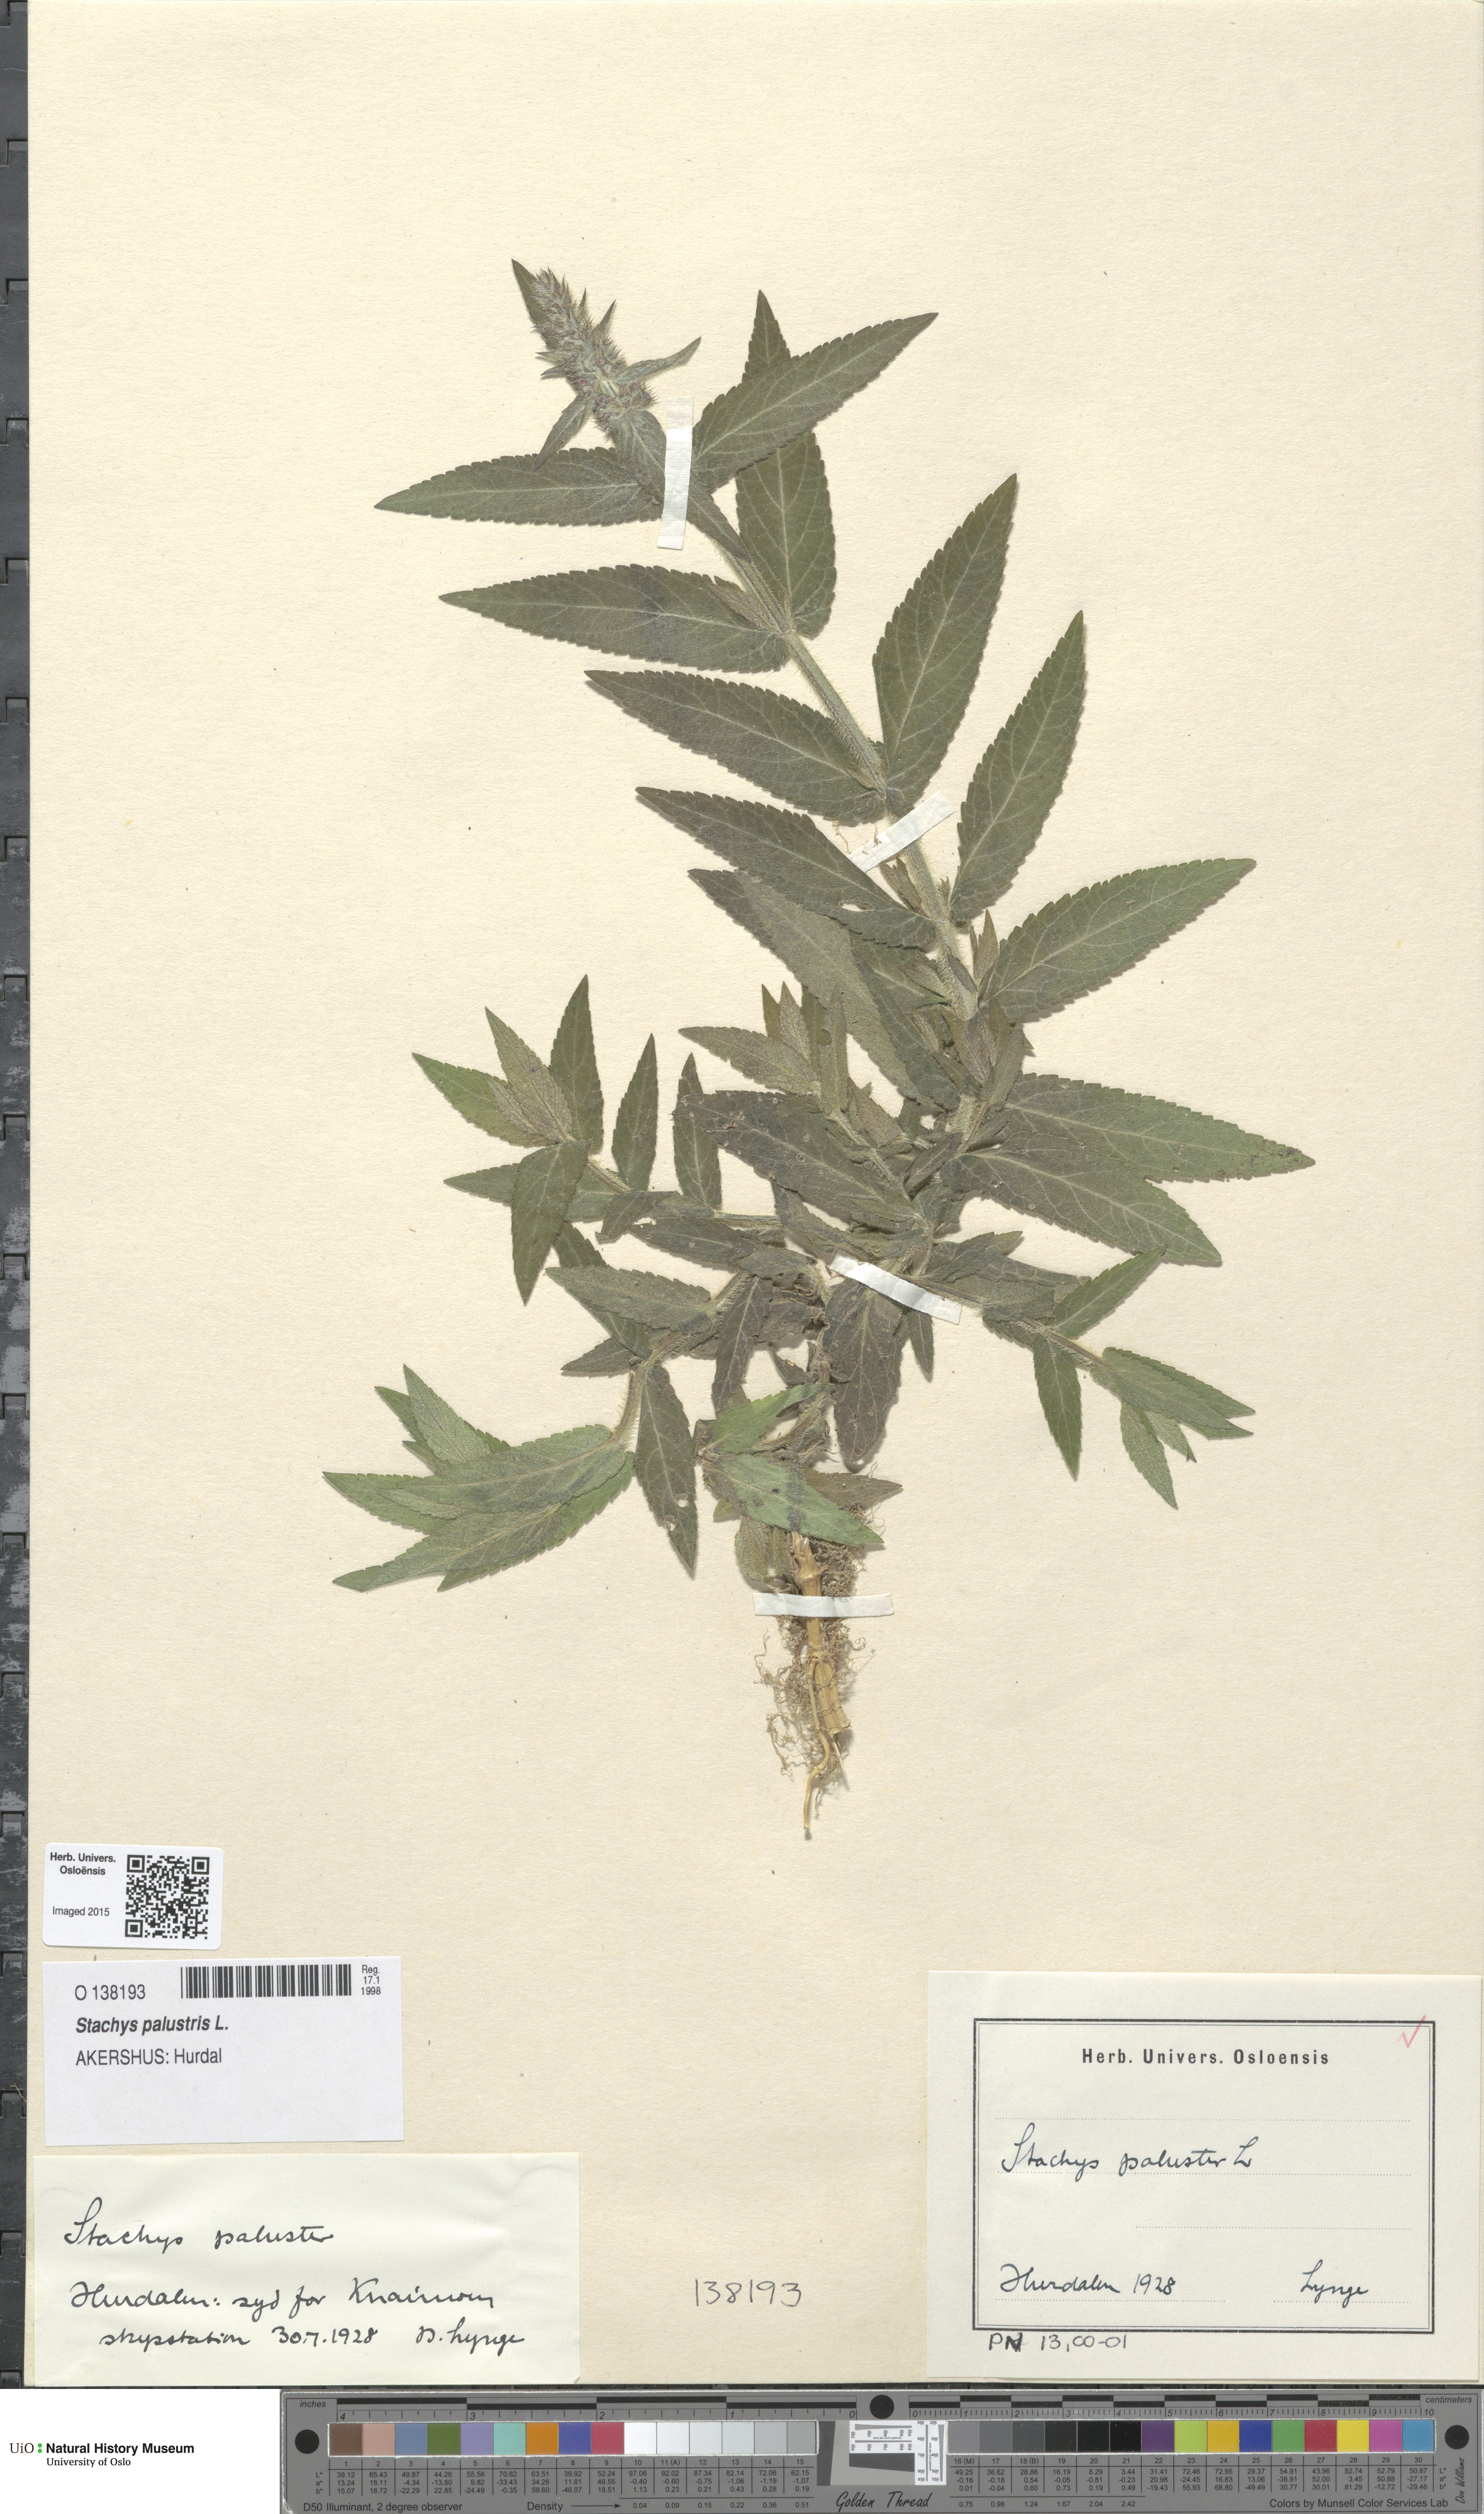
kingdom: Plantae
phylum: Tracheophyta
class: Magnoliopsida
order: Lamiales
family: Lamiaceae
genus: Stachys
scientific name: Stachys palustris
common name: Marsh woundwort
